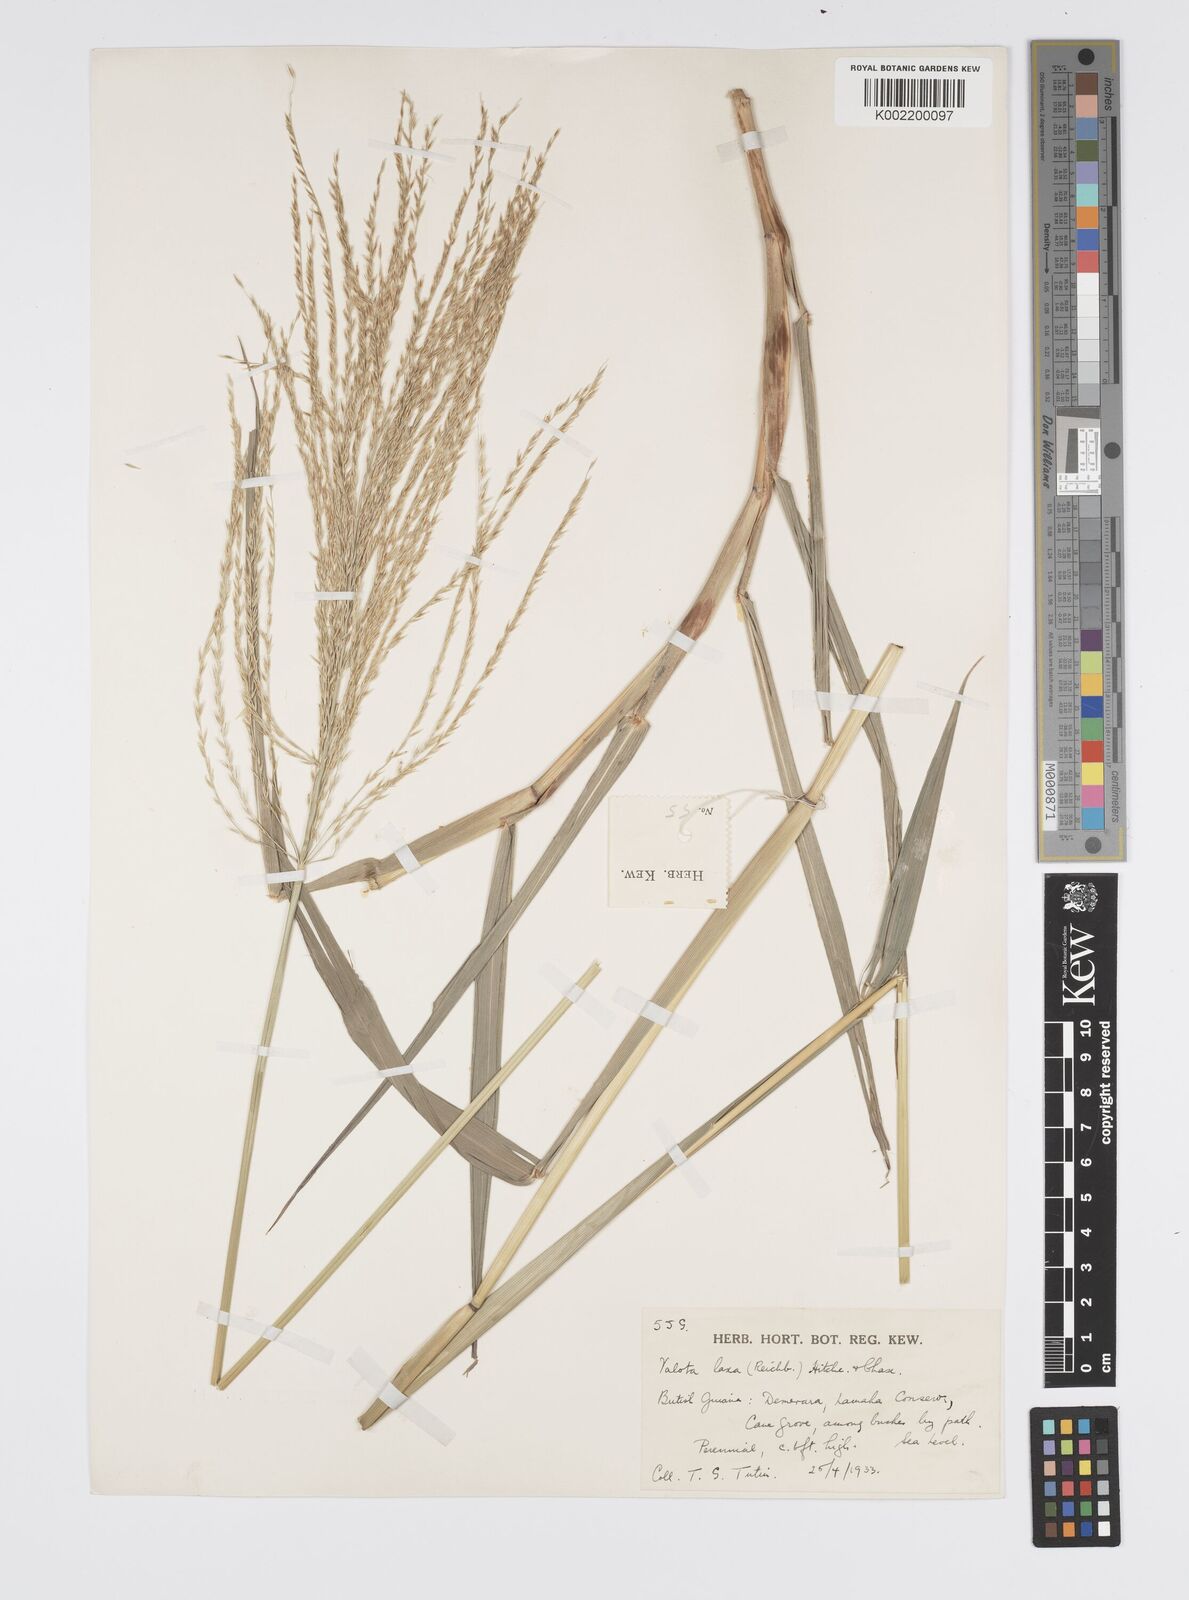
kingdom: Plantae
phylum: Tracheophyta
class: Liliopsida
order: Poales
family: Poaceae
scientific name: Poaceae
